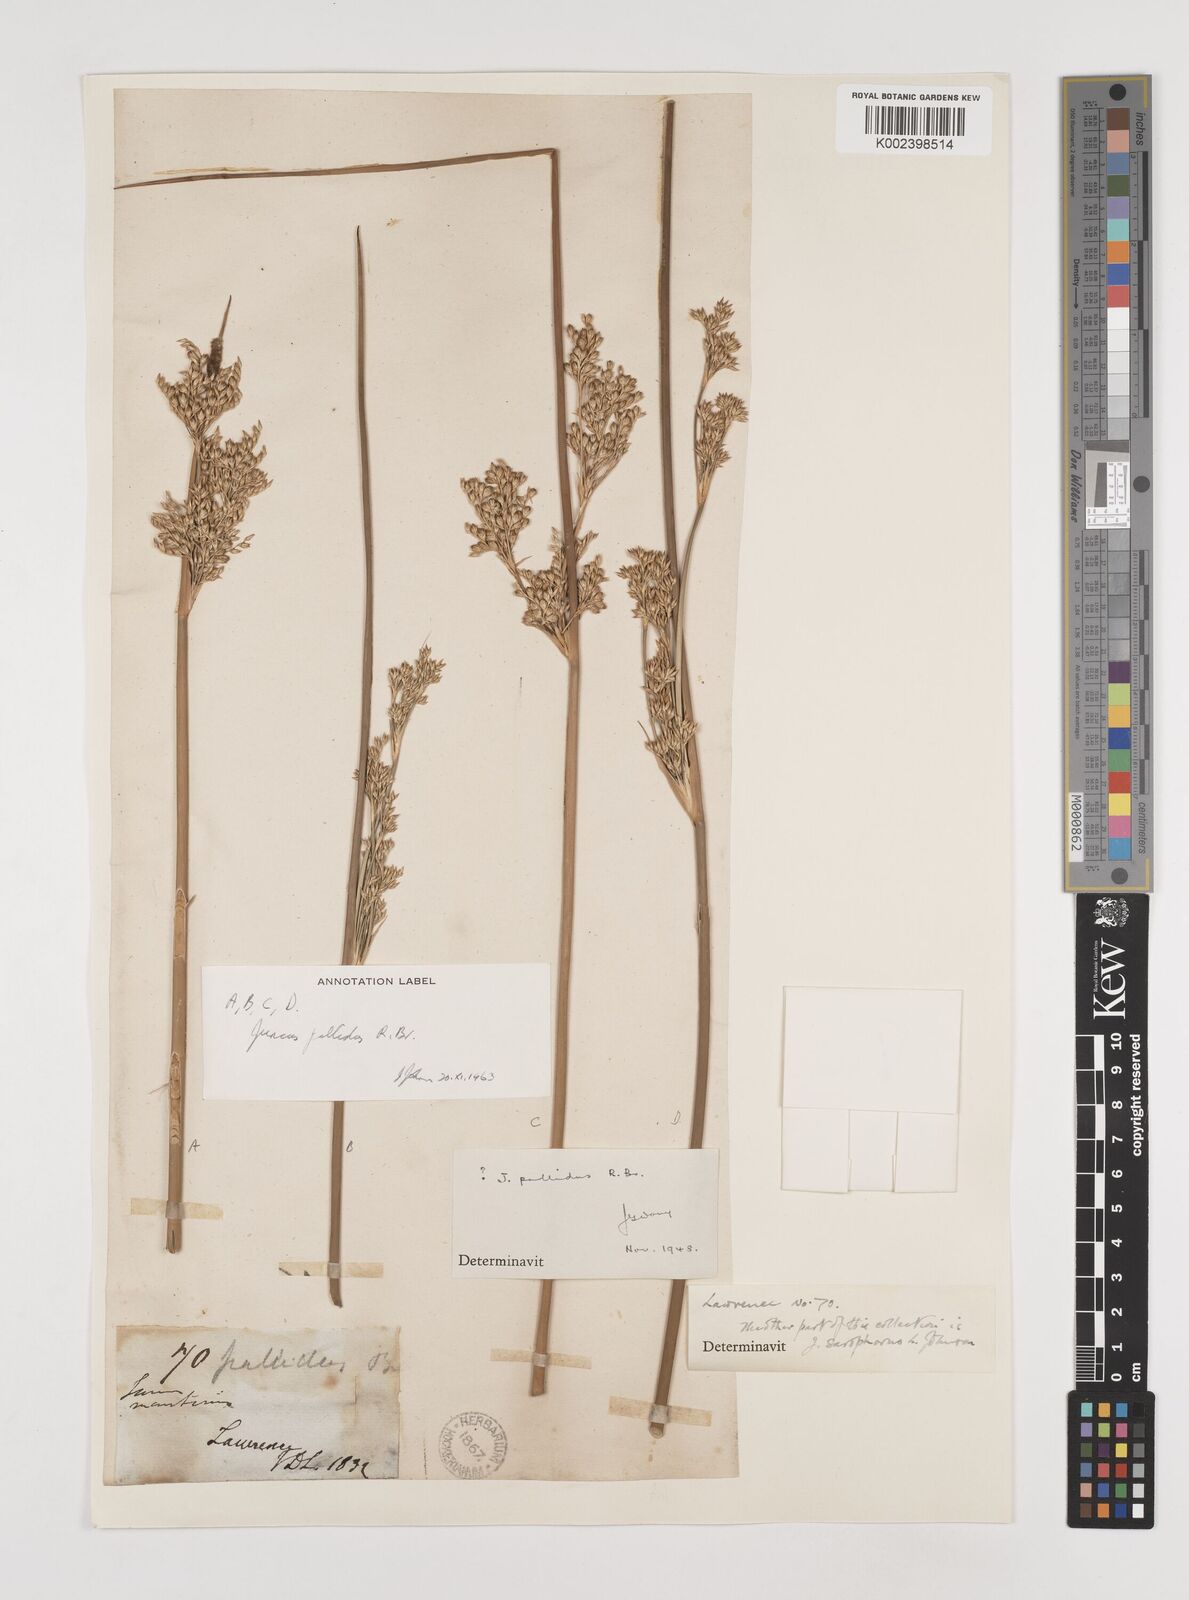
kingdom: Plantae
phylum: Tracheophyta
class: Liliopsida
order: Poales
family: Juncaceae
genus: Juncus
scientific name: Juncus pallidus
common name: Great soft-rush
